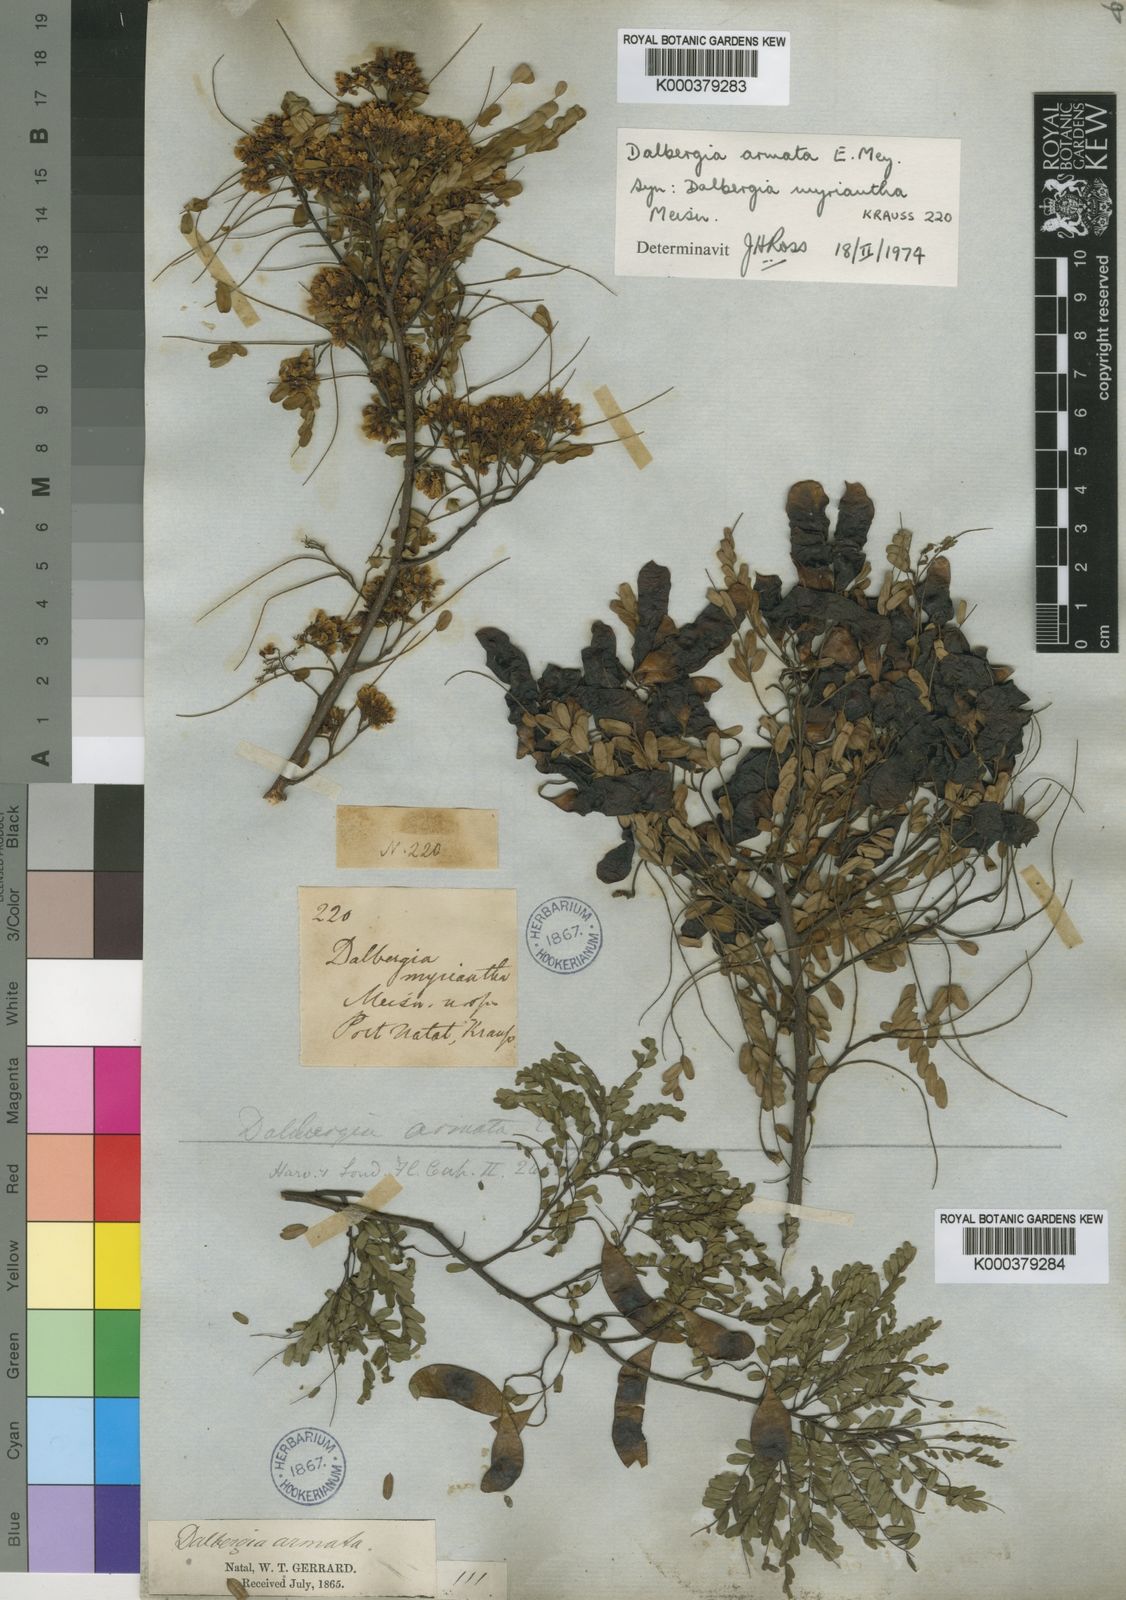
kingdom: Plantae
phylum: Tracheophyta
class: Magnoliopsida
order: Fabales
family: Fabaceae
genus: Dalbergia
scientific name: Dalbergia armata
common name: Hluhluwe climber
